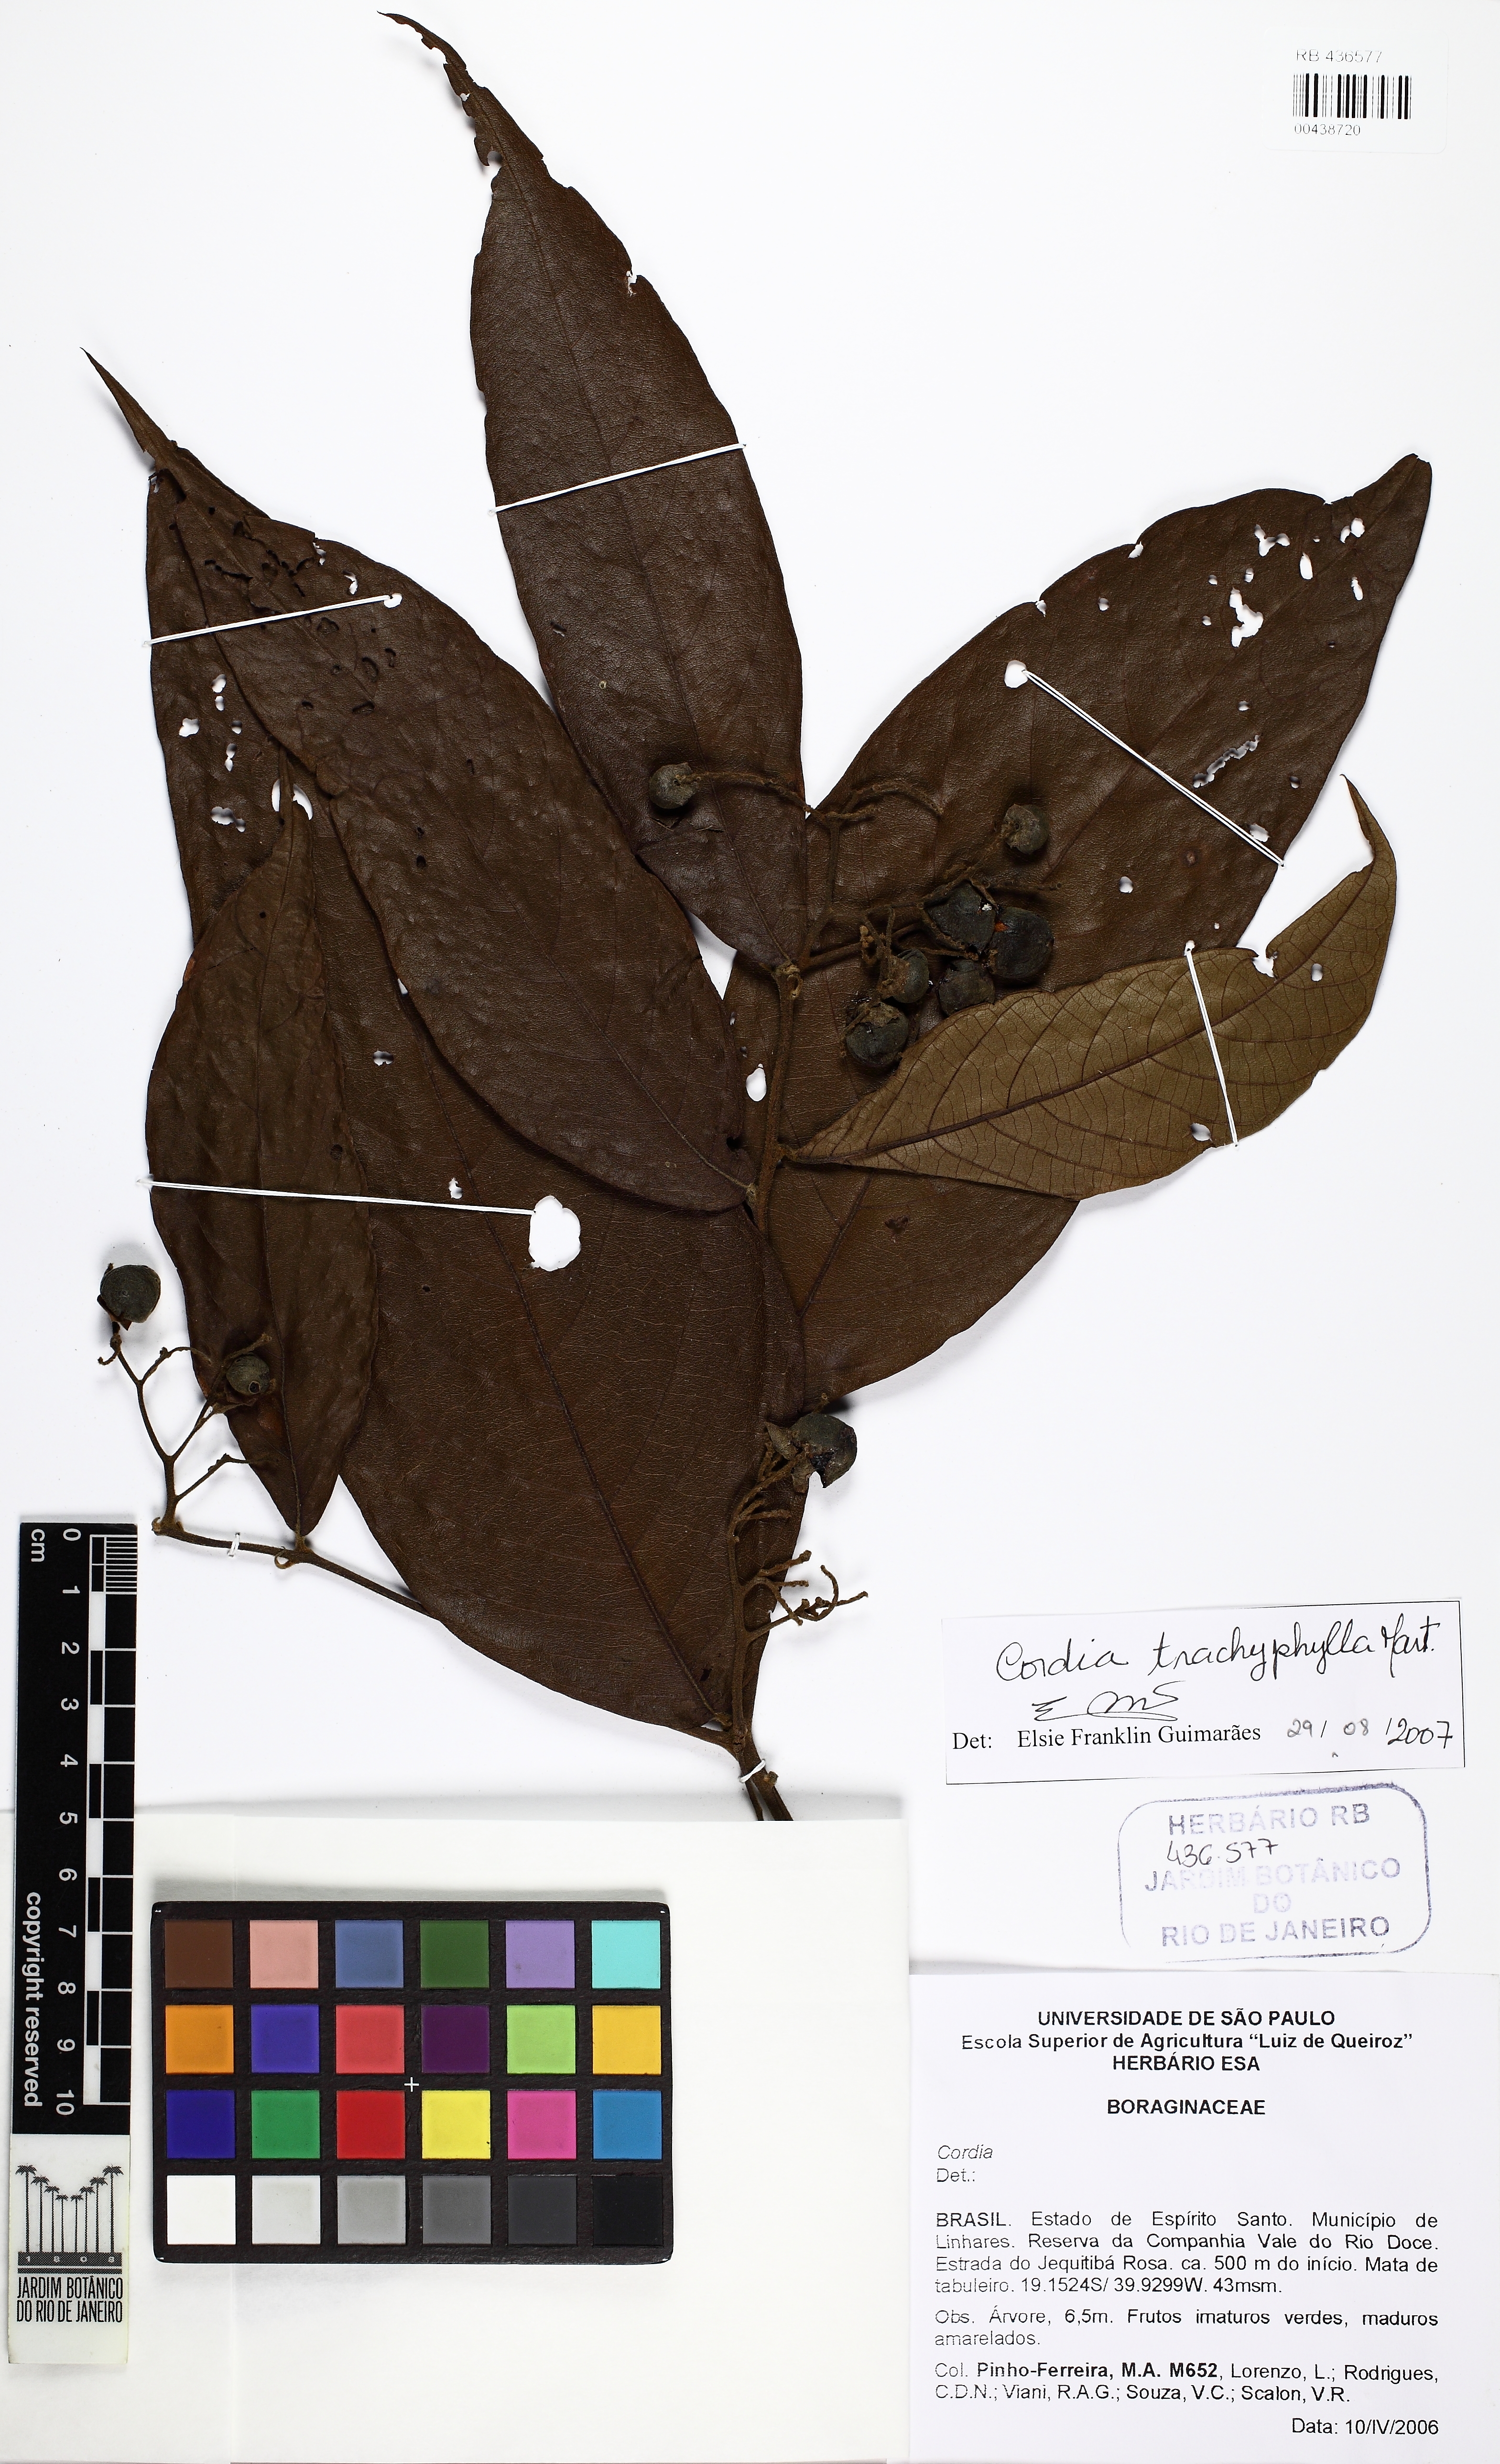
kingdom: Plantae
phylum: Tracheophyta
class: Magnoliopsida
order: Boraginales
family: Cordiaceae
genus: Cordia
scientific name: Cordia trachyphylla
